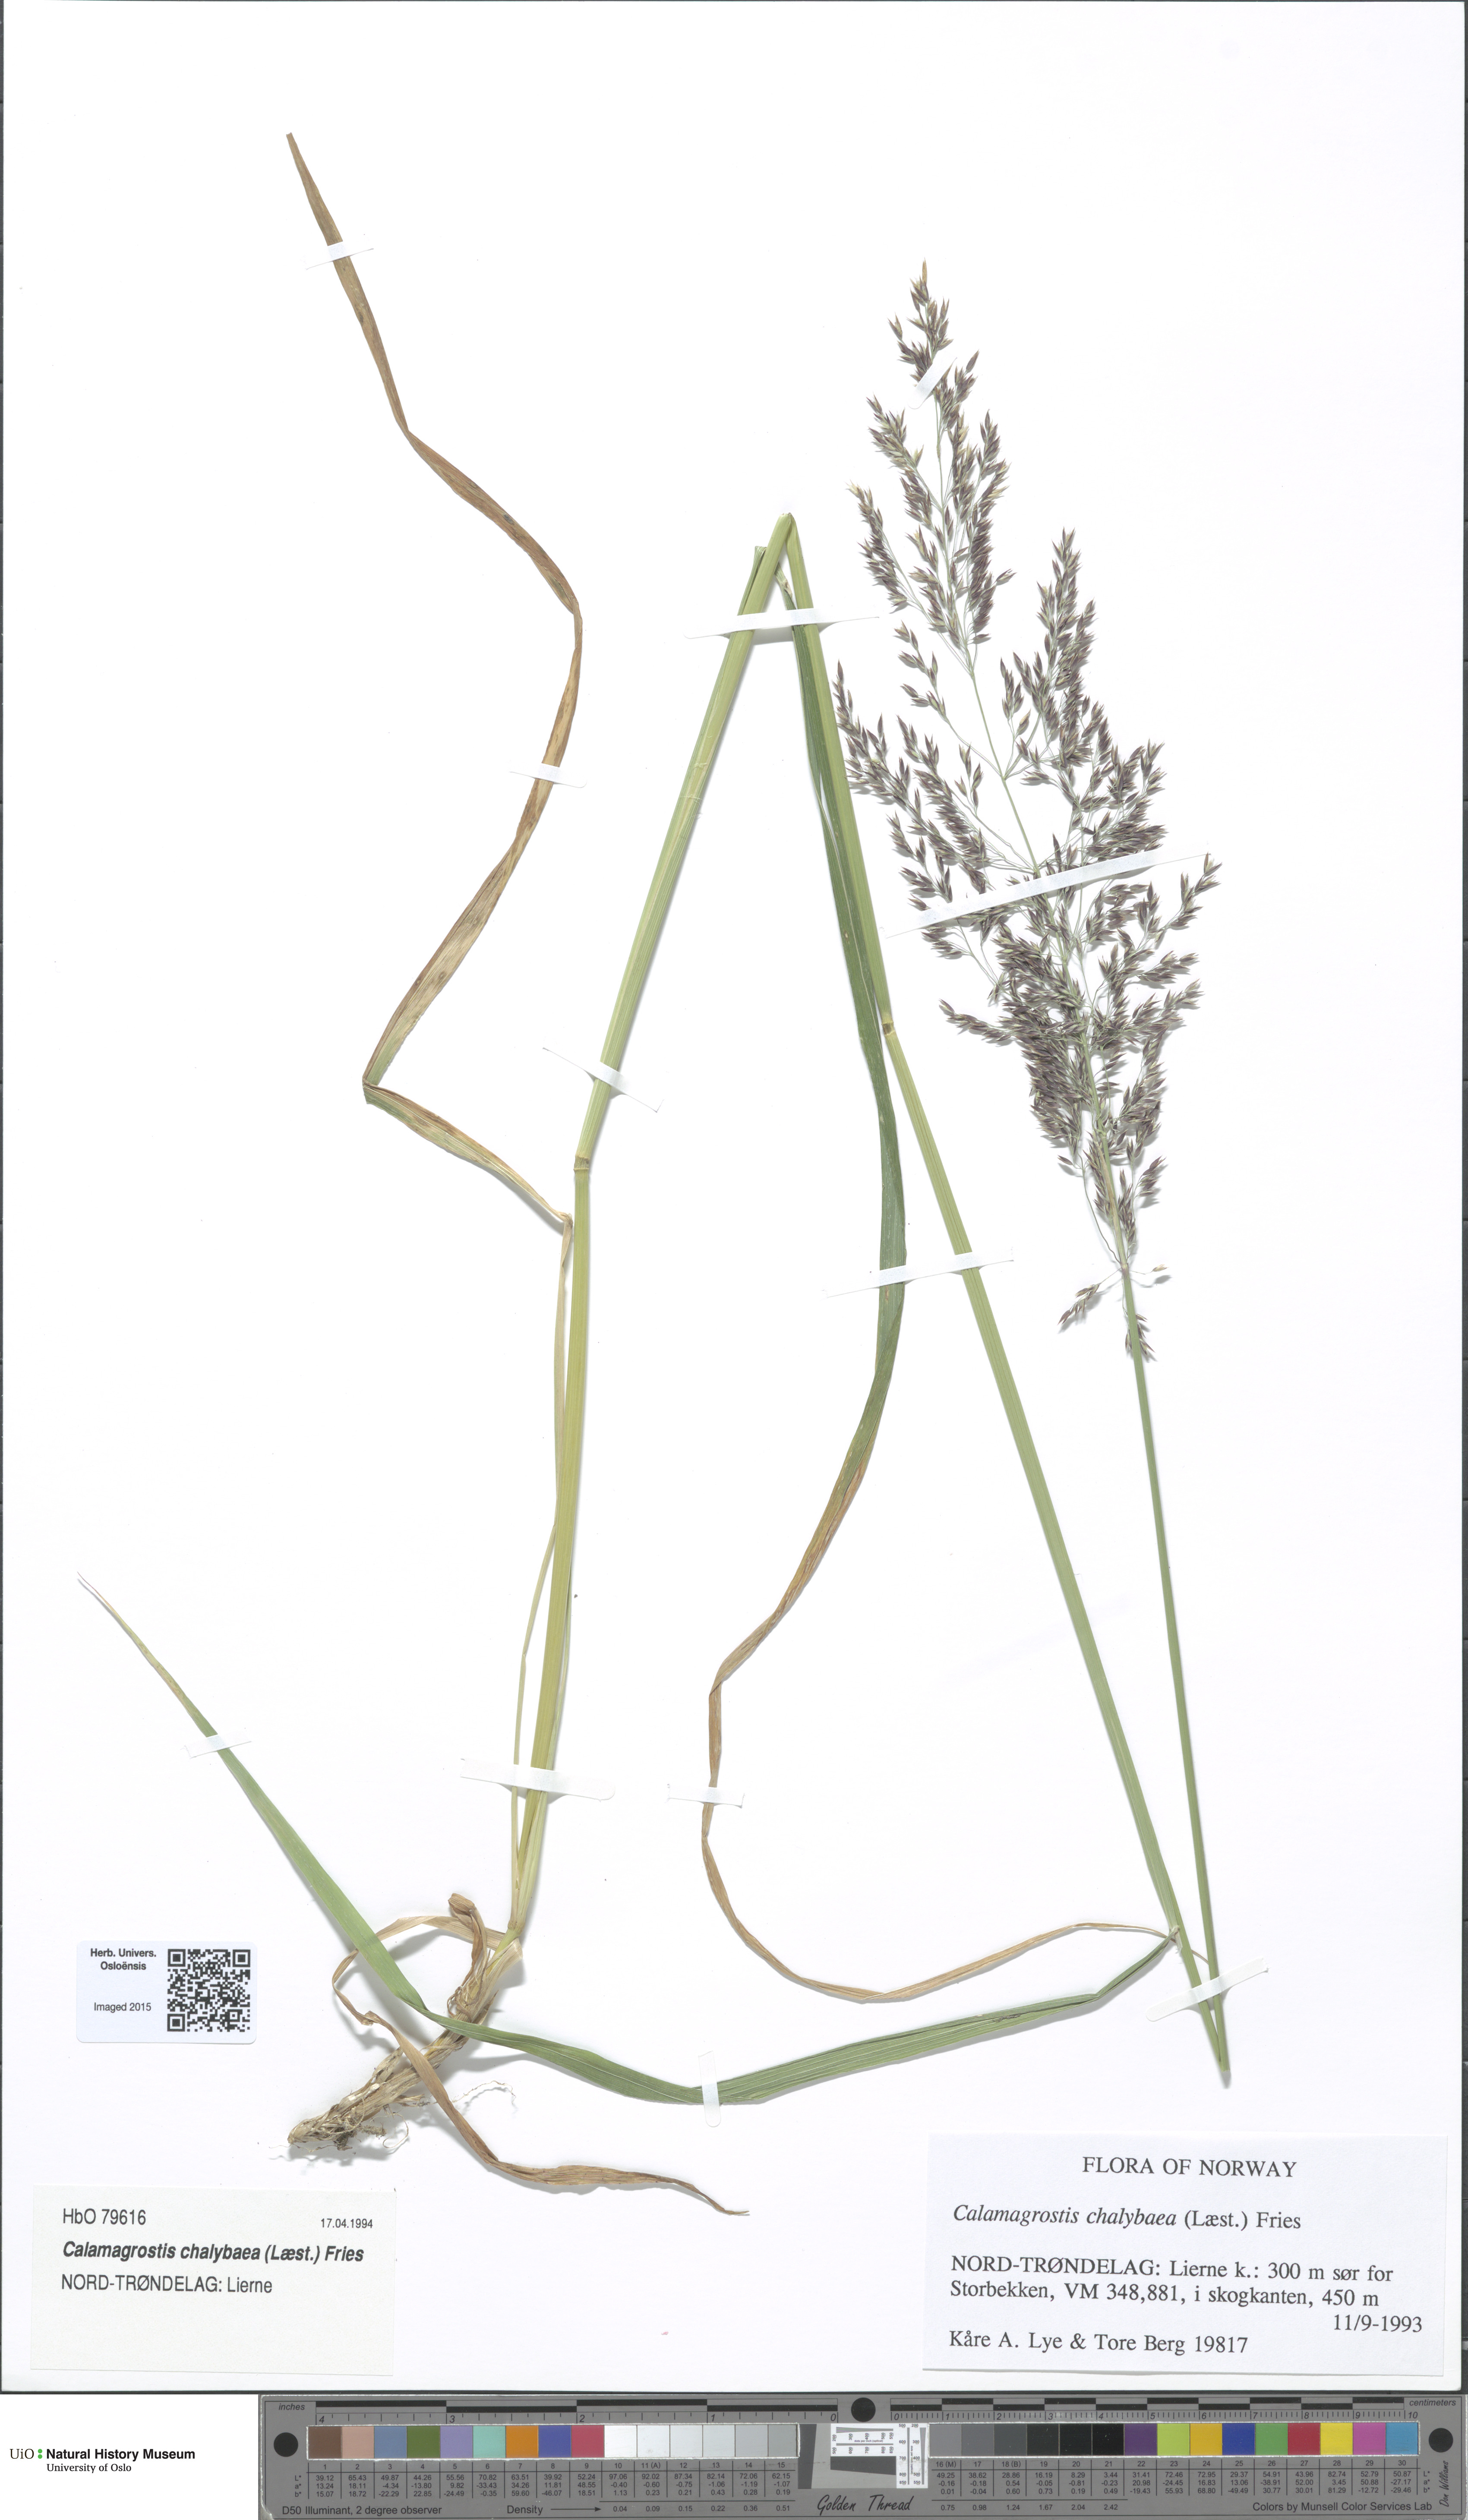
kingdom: Plantae
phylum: Tracheophyta
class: Liliopsida
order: Poales
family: Poaceae
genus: Calamagrostis
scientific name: Calamagrostis chalybaea
